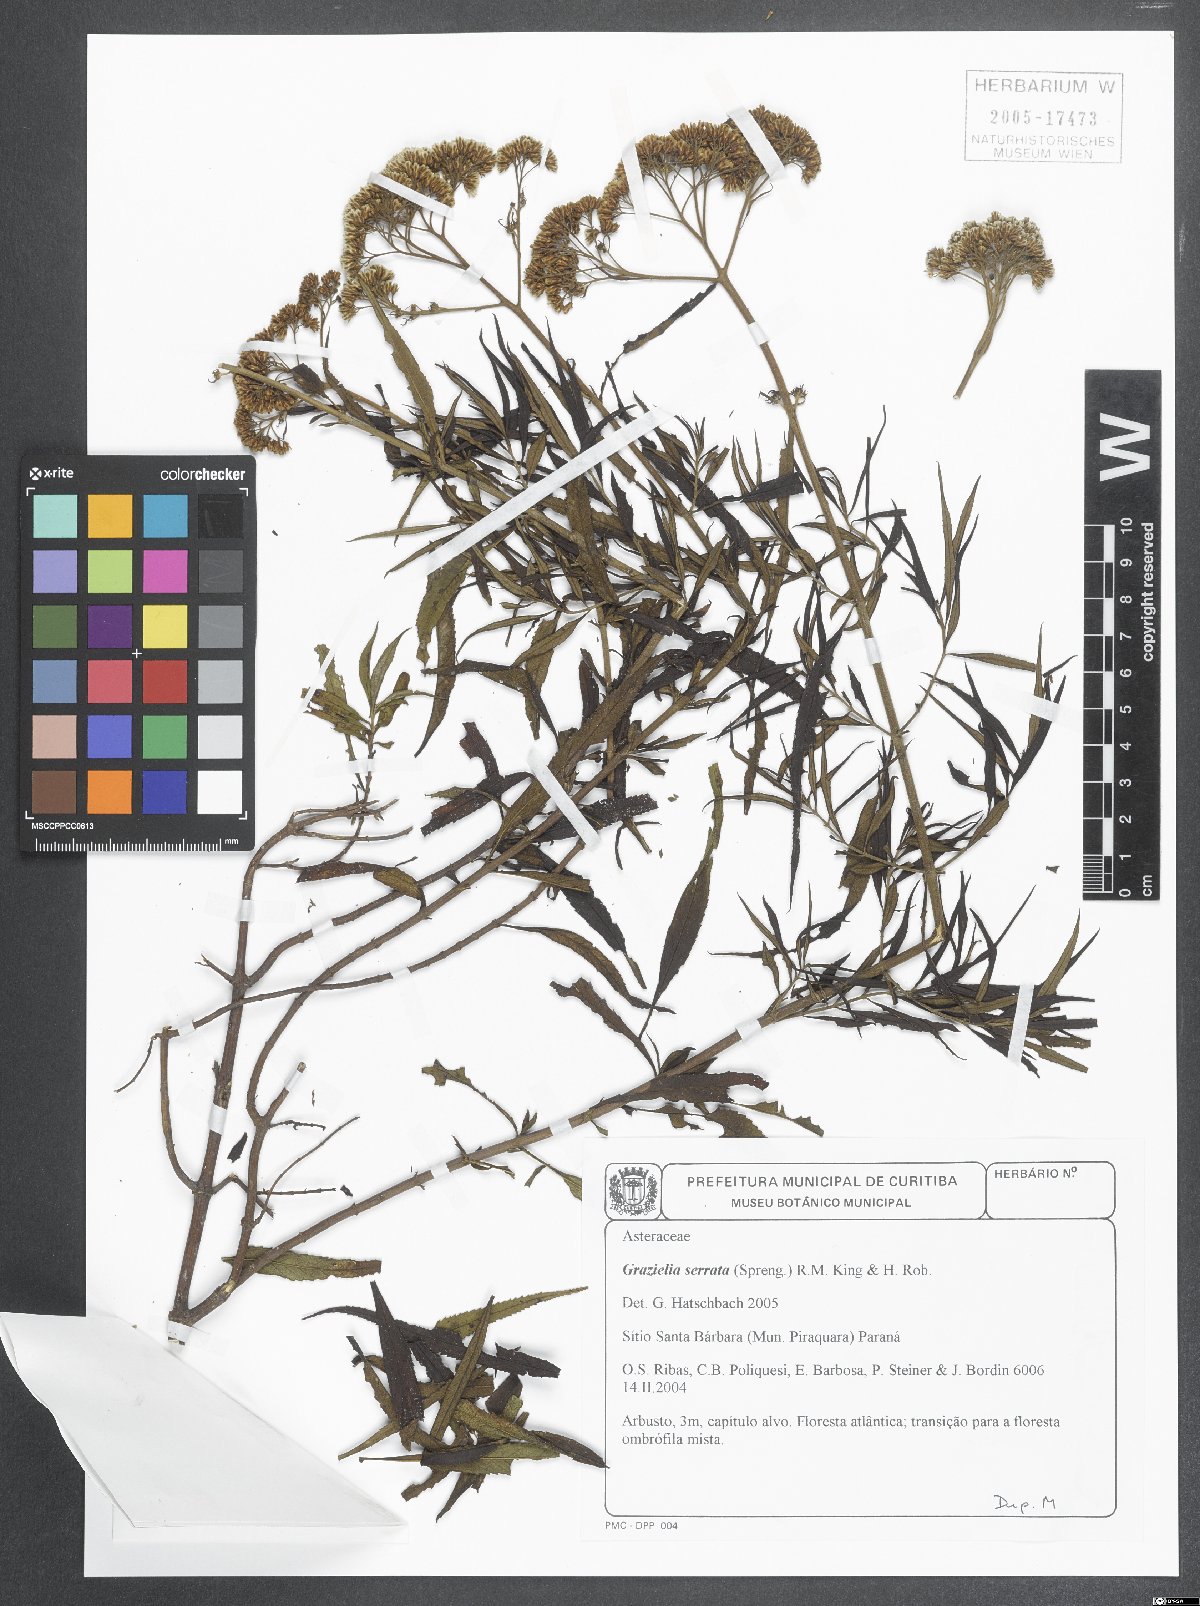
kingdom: Plantae
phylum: Tracheophyta
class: Magnoliopsida
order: Asterales
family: Asteraceae
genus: Grazielia
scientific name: Grazielia serrata
